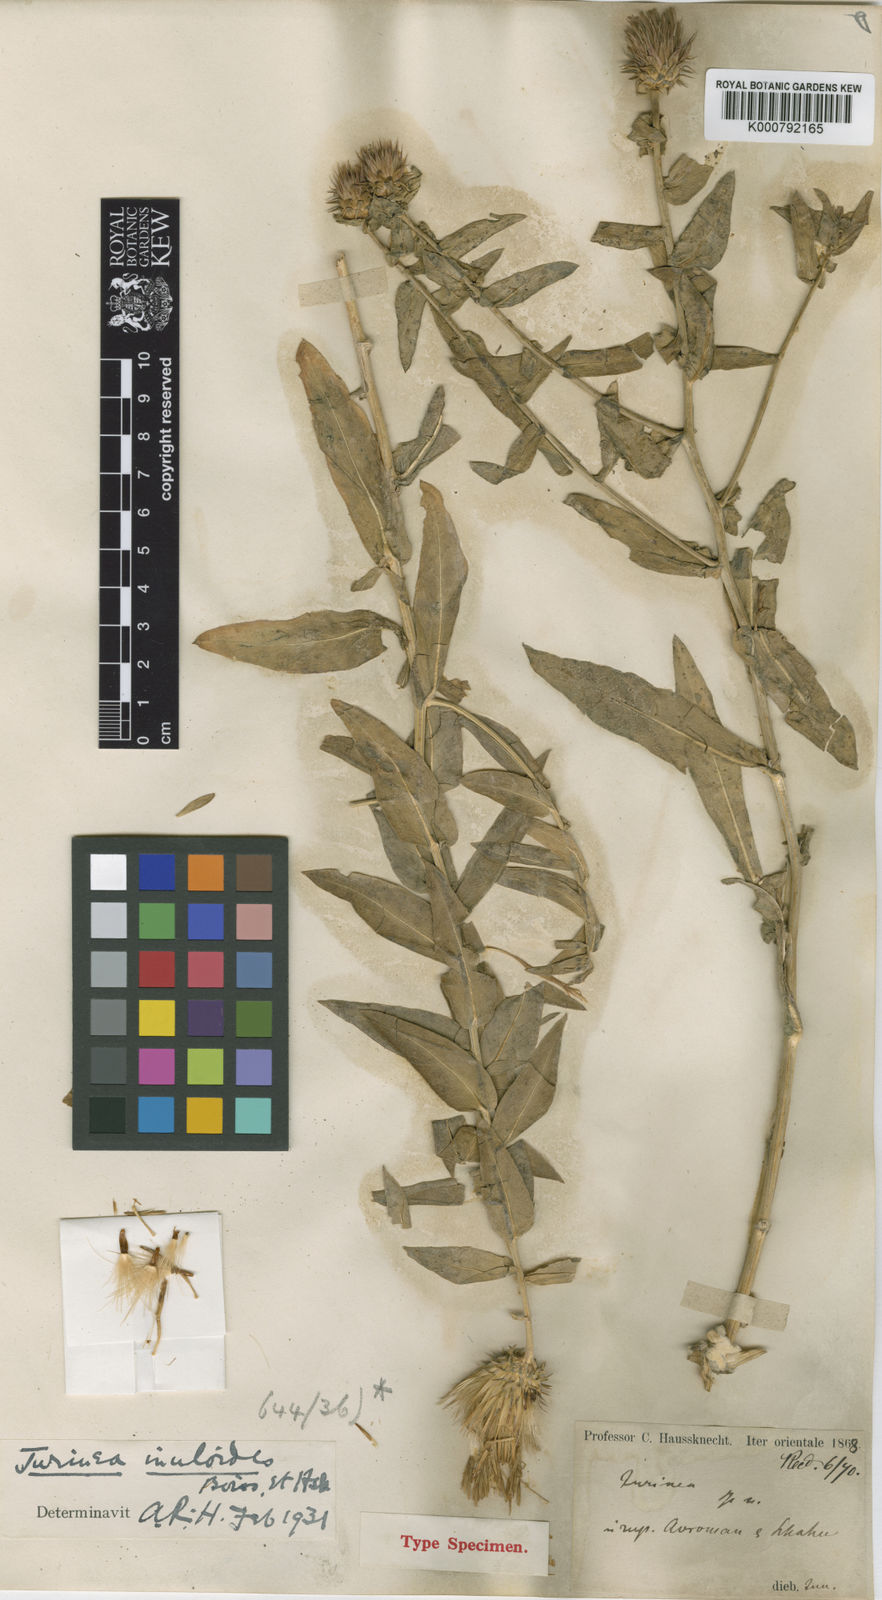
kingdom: Plantae
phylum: Tracheophyta
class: Magnoliopsida
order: Asterales
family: Asteraceae
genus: Jurinea
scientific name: Jurinea inuloides
